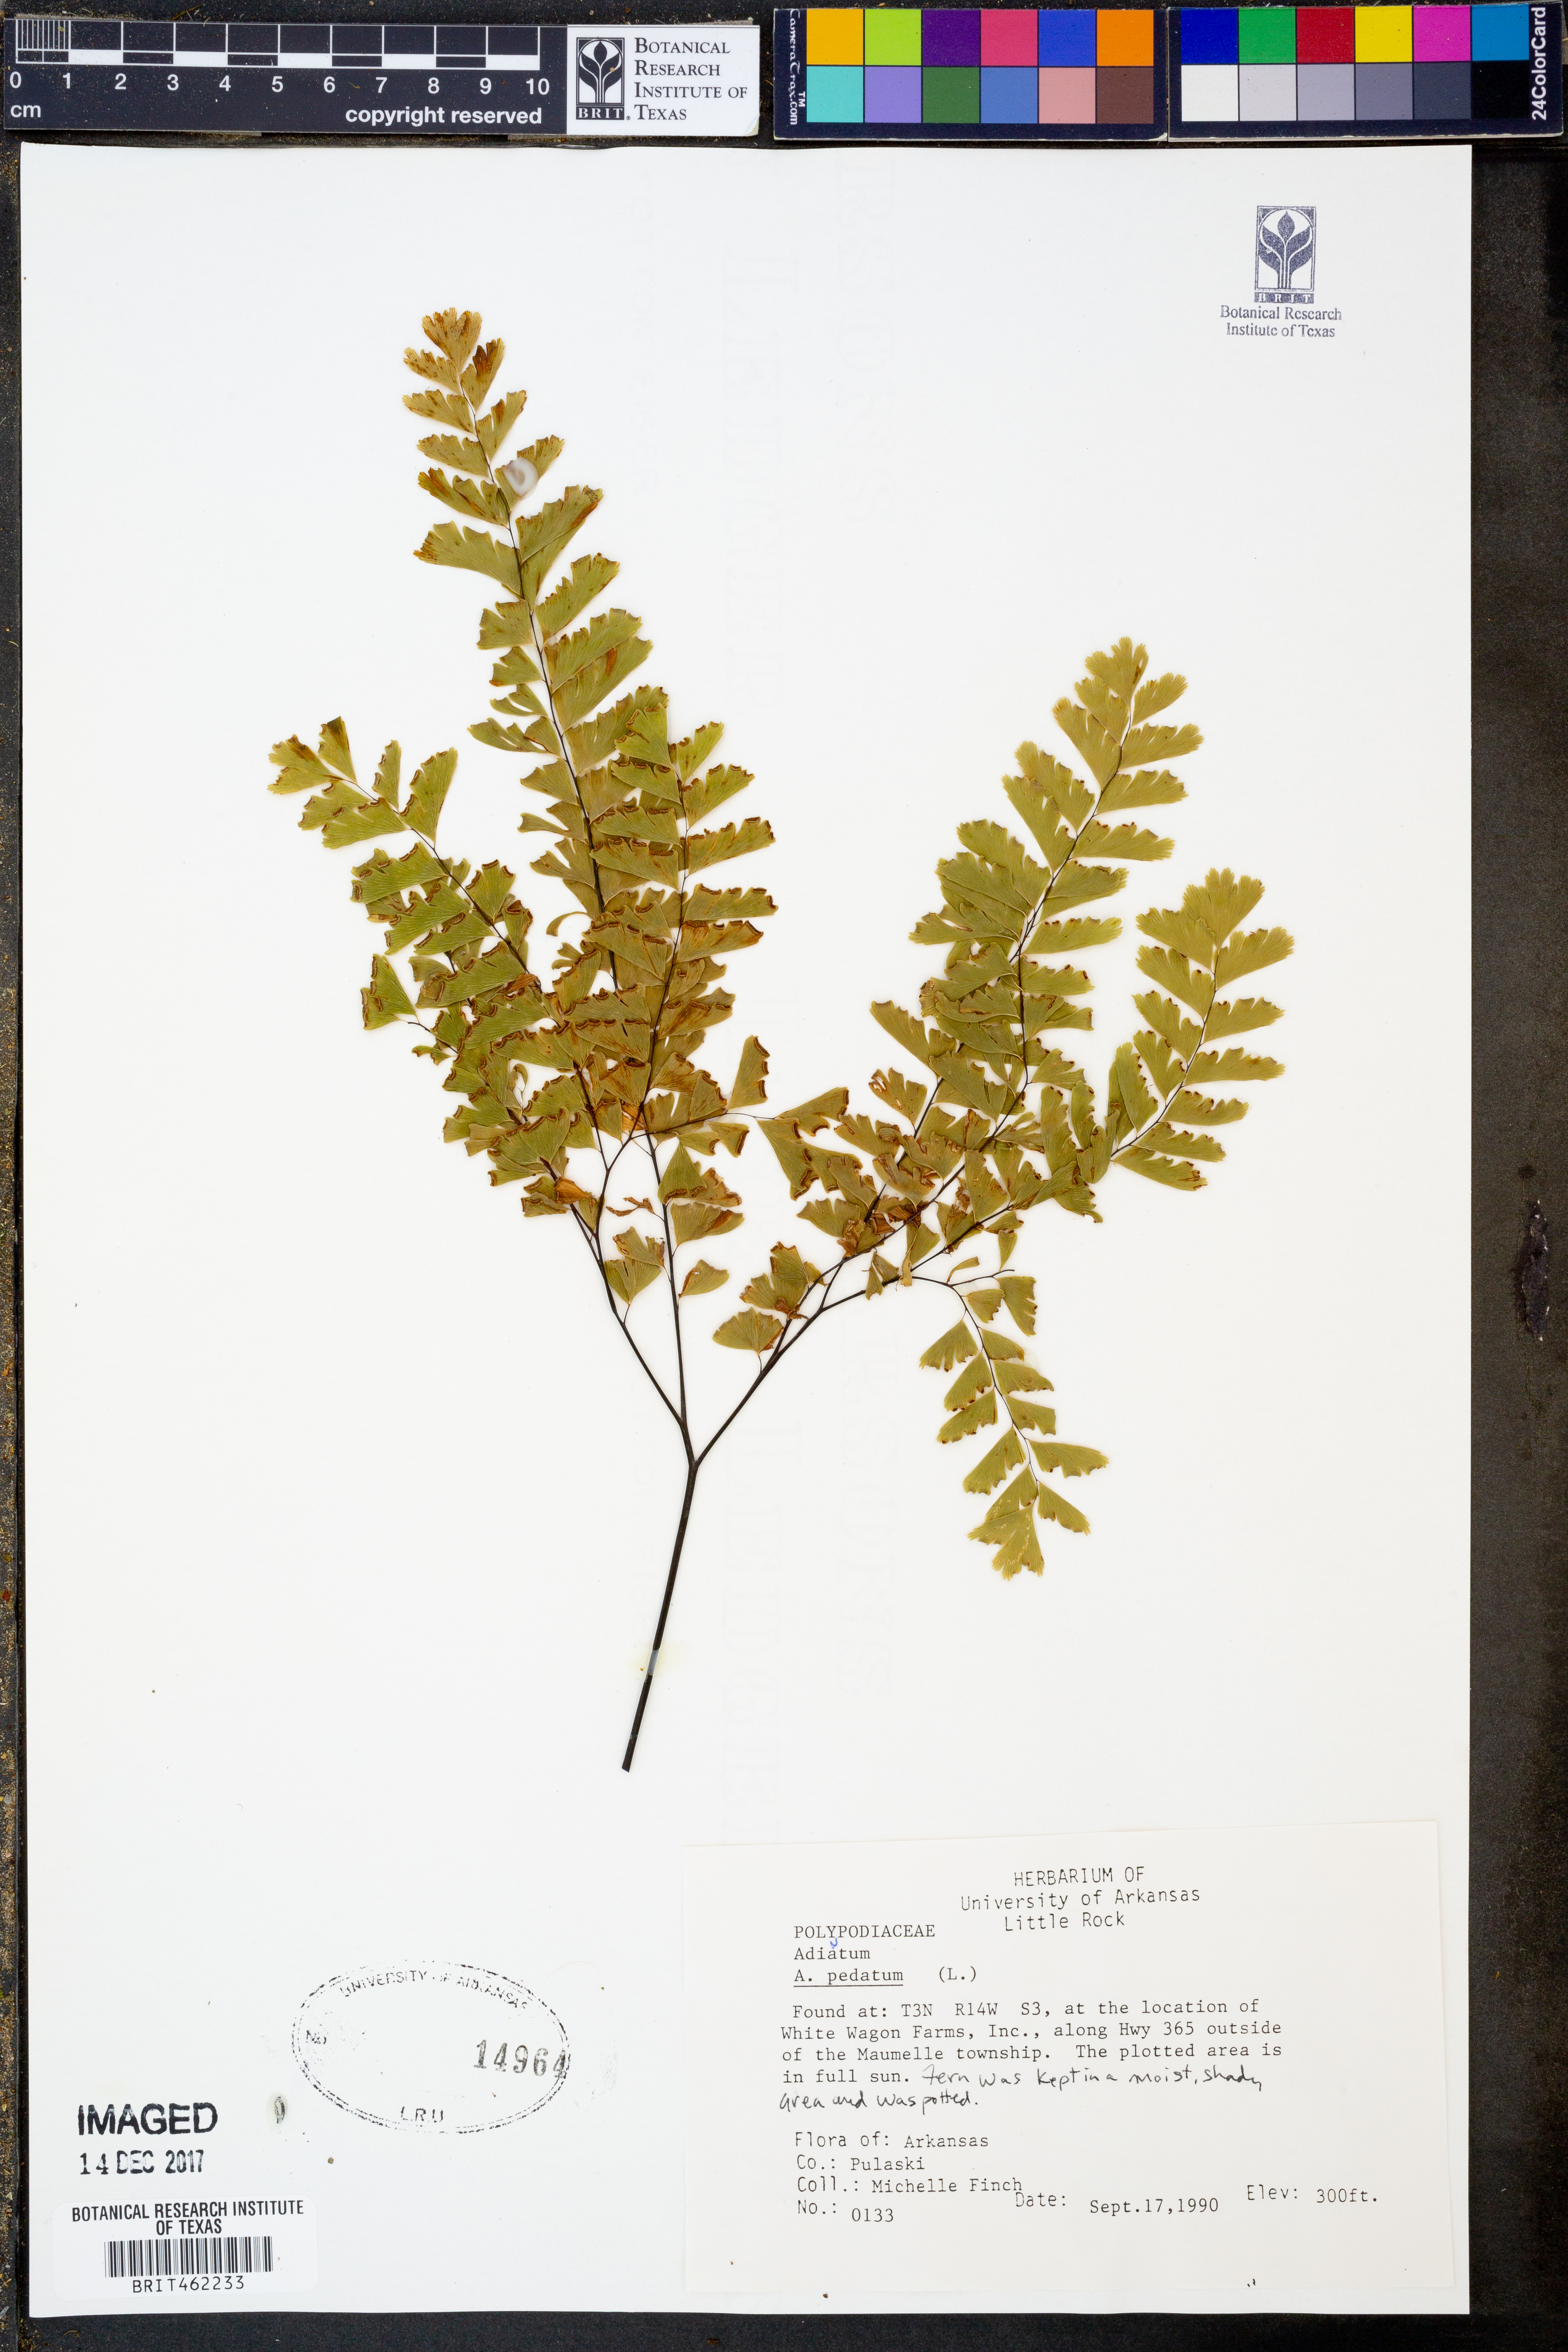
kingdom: Plantae
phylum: Tracheophyta
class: Polypodiopsida
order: Polypodiales
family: Pteridaceae
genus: Adiantum
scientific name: Adiantum pedatum
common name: Five-finger fern
